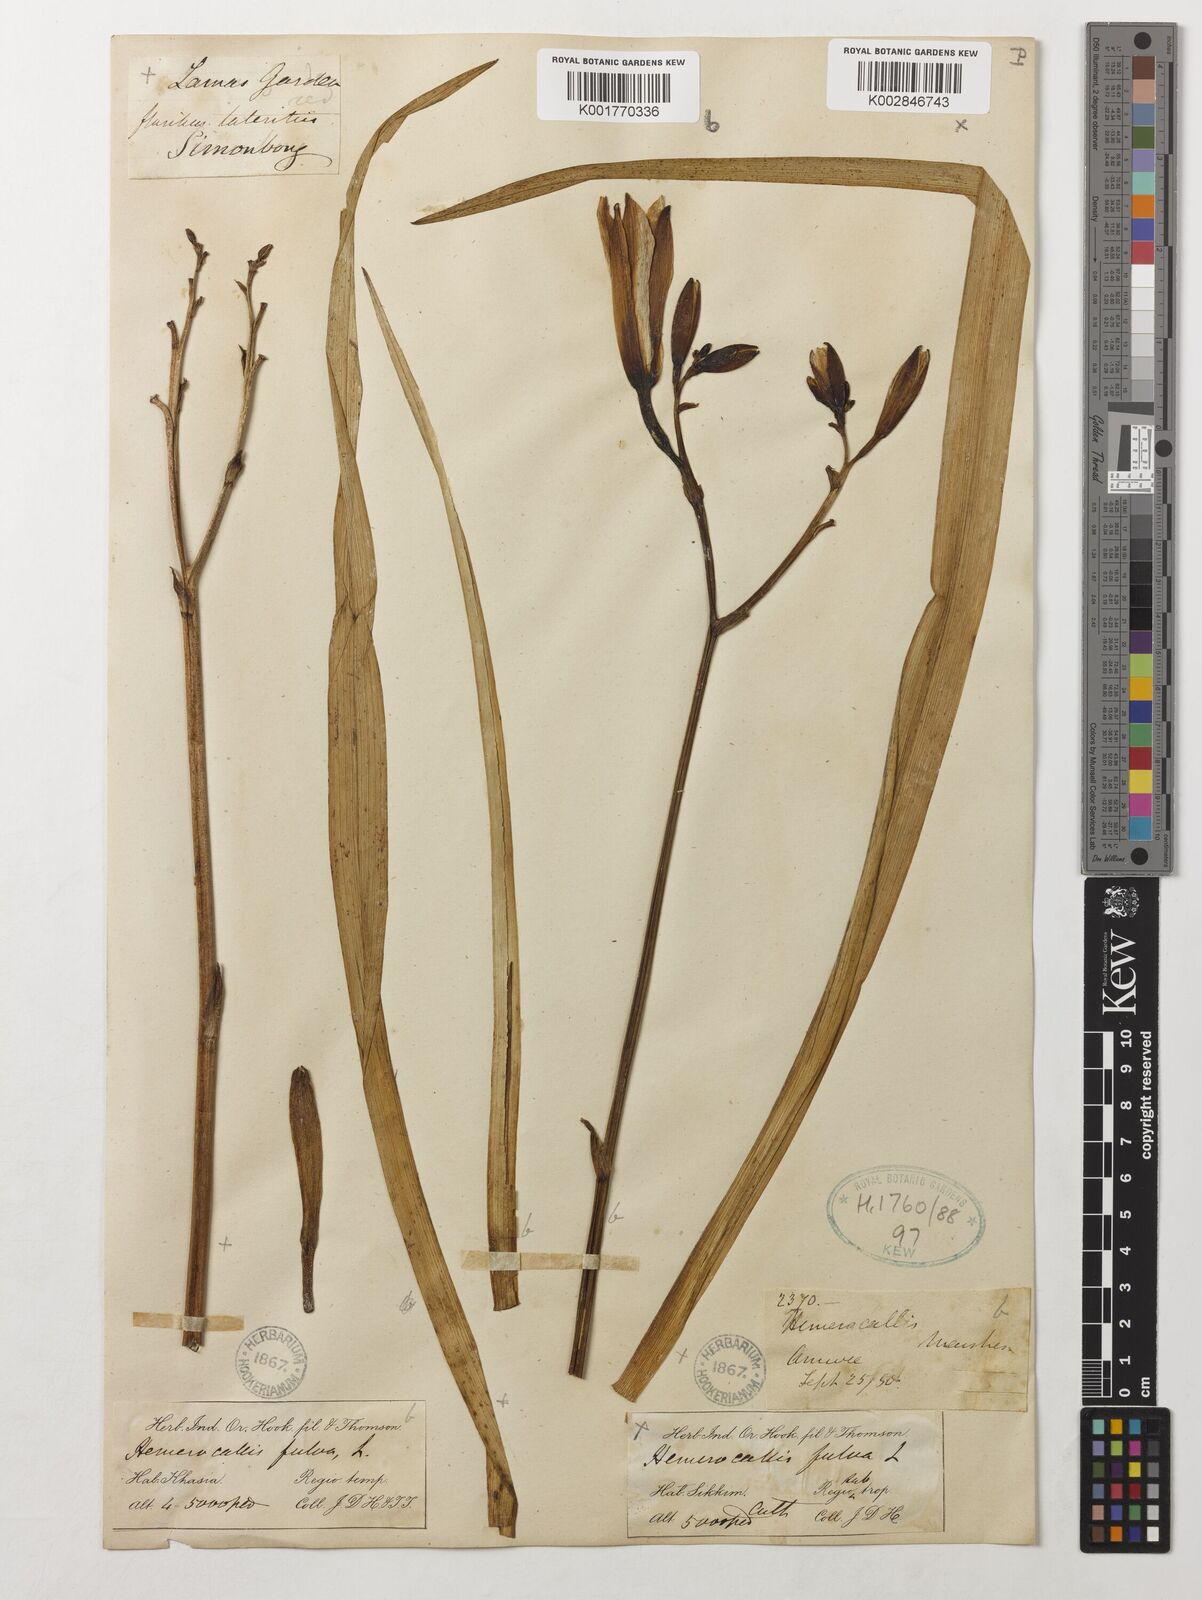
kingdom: Plantae
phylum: Tracheophyta
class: Liliopsida
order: Asparagales
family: Asphodelaceae
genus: Hemerocallis
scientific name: Hemerocallis fulva
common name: Orange day-lily
